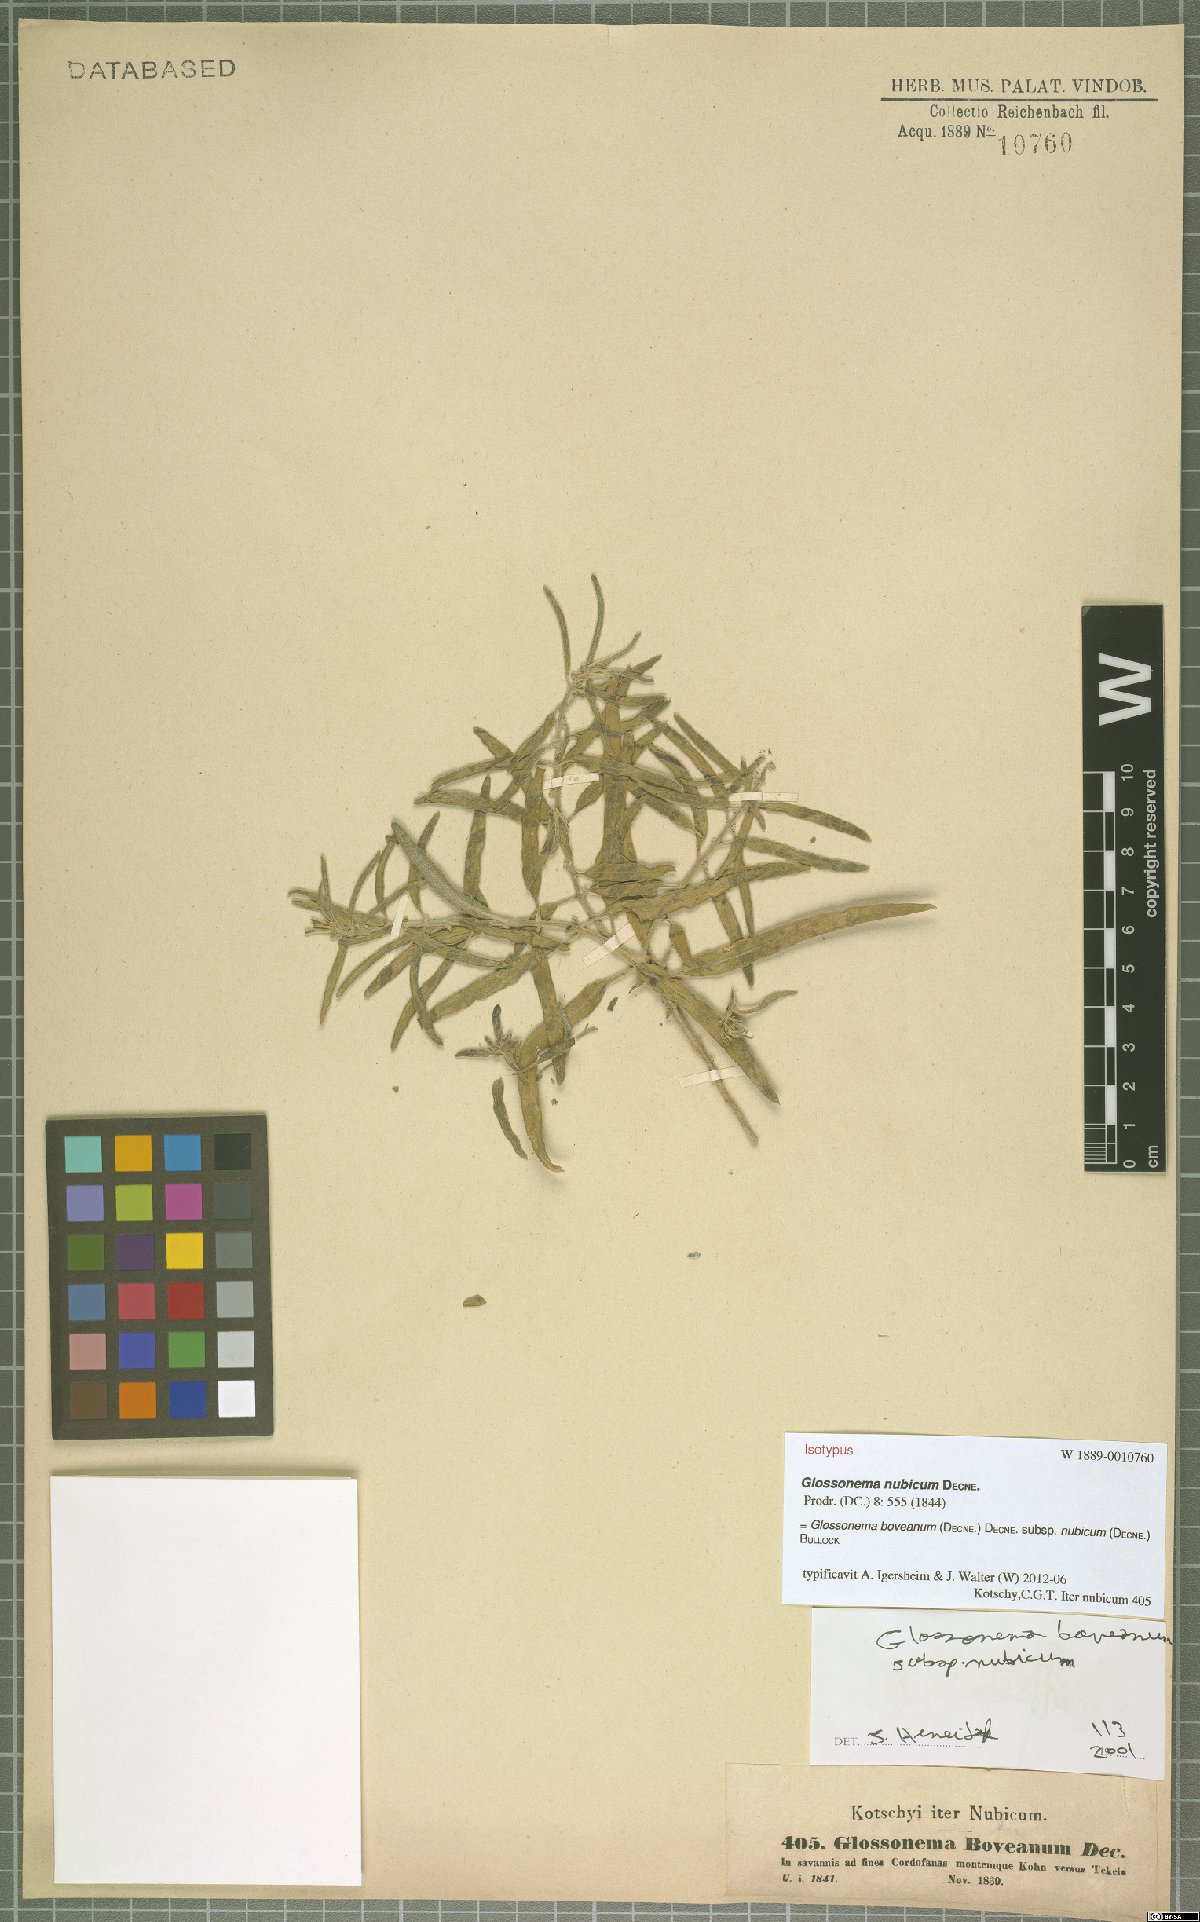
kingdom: Plantae
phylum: Tracheophyta
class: Magnoliopsida
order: Gentianales
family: Apocynaceae
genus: Cynanchum
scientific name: Cynanchum boveanum
